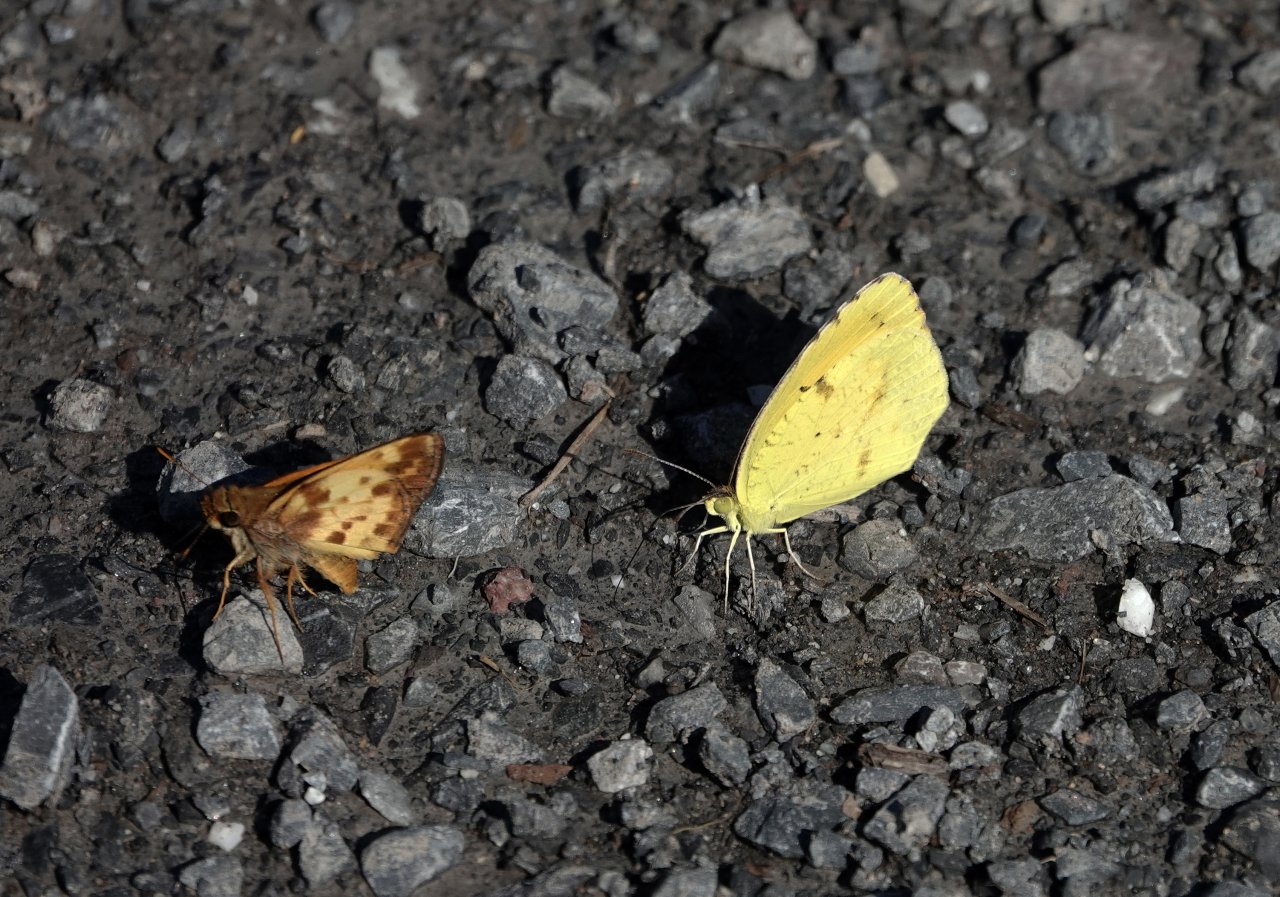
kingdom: Animalia
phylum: Arthropoda
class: Insecta
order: Lepidoptera
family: Pieridae
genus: Abaeis
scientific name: Abaeis nicippe
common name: Sleepy Orange
